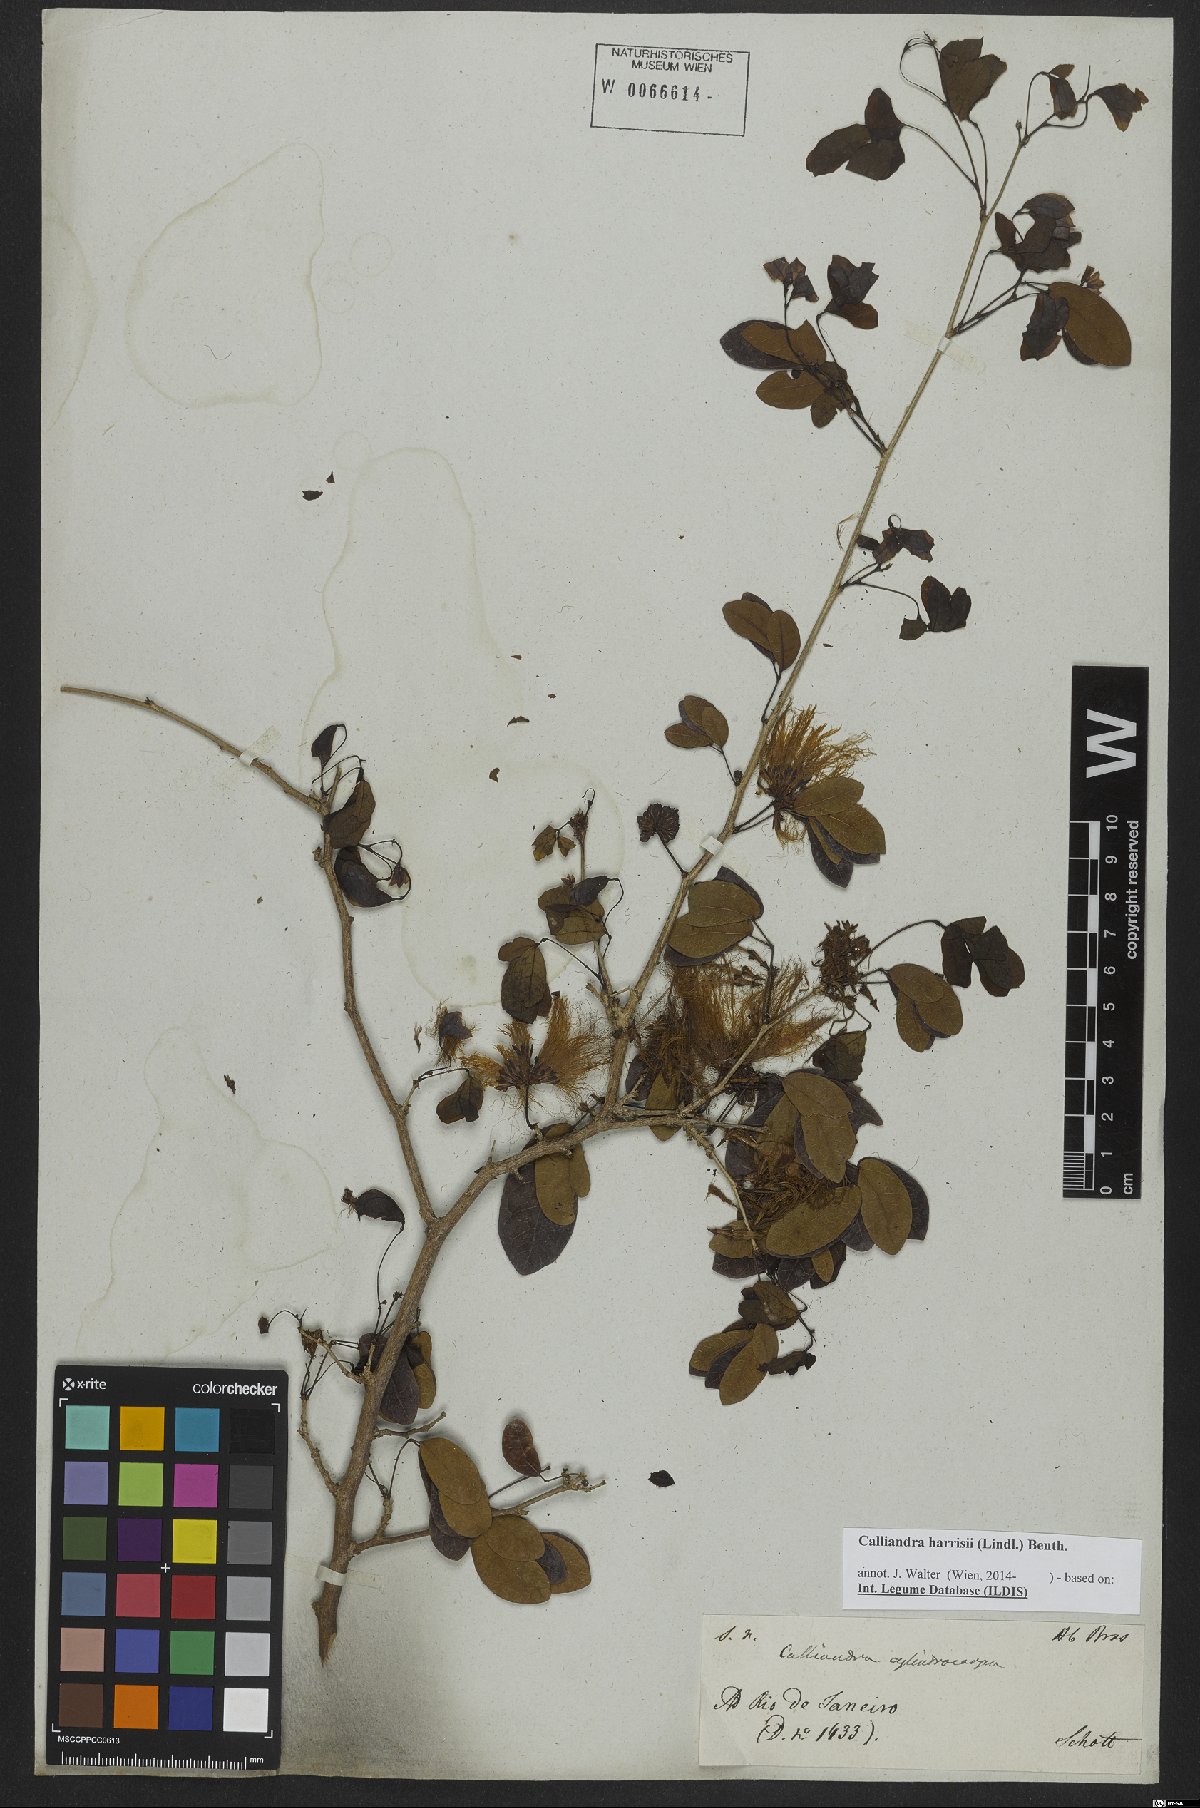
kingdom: Plantae
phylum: Tracheophyta
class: Magnoliopsida
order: Fabales
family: Fabaceae
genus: Calliandra
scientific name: Calliandra depauperata
